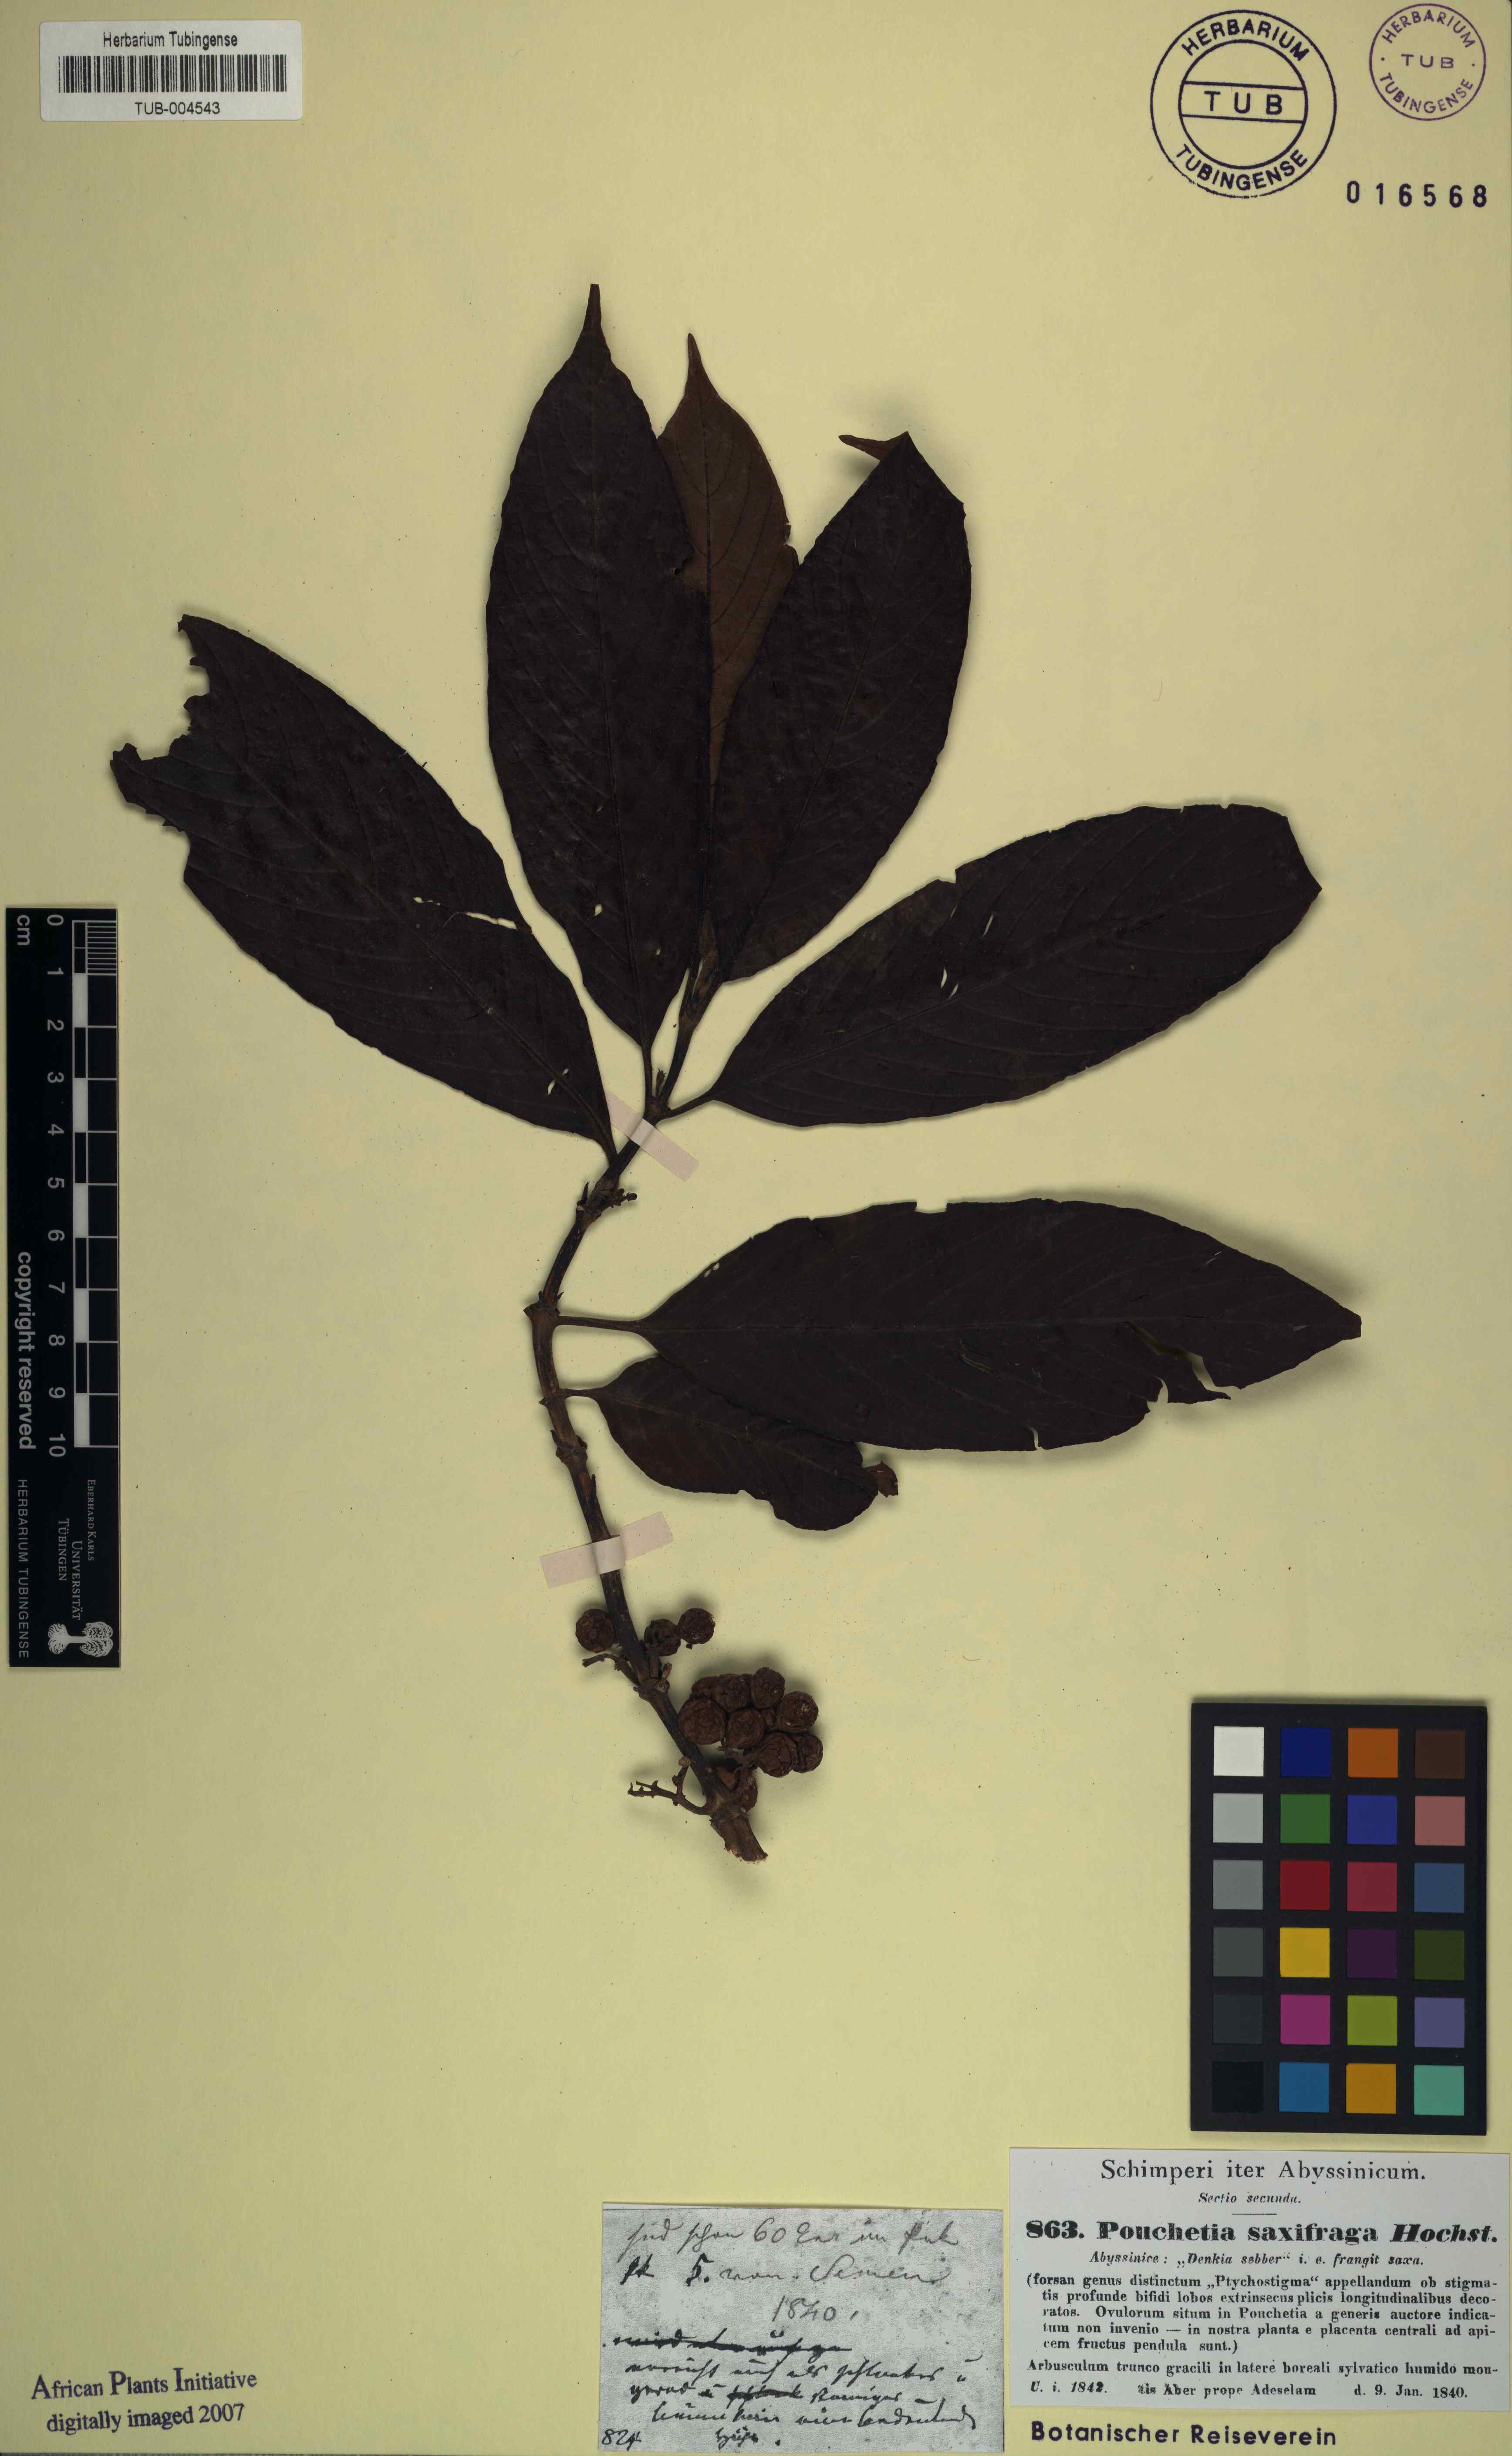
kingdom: Plantae
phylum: Tracheophyta
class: Magnoliopsida
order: Gentianales
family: Rubiaceae
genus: Galiniera
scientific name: Galiniera saxifraga
